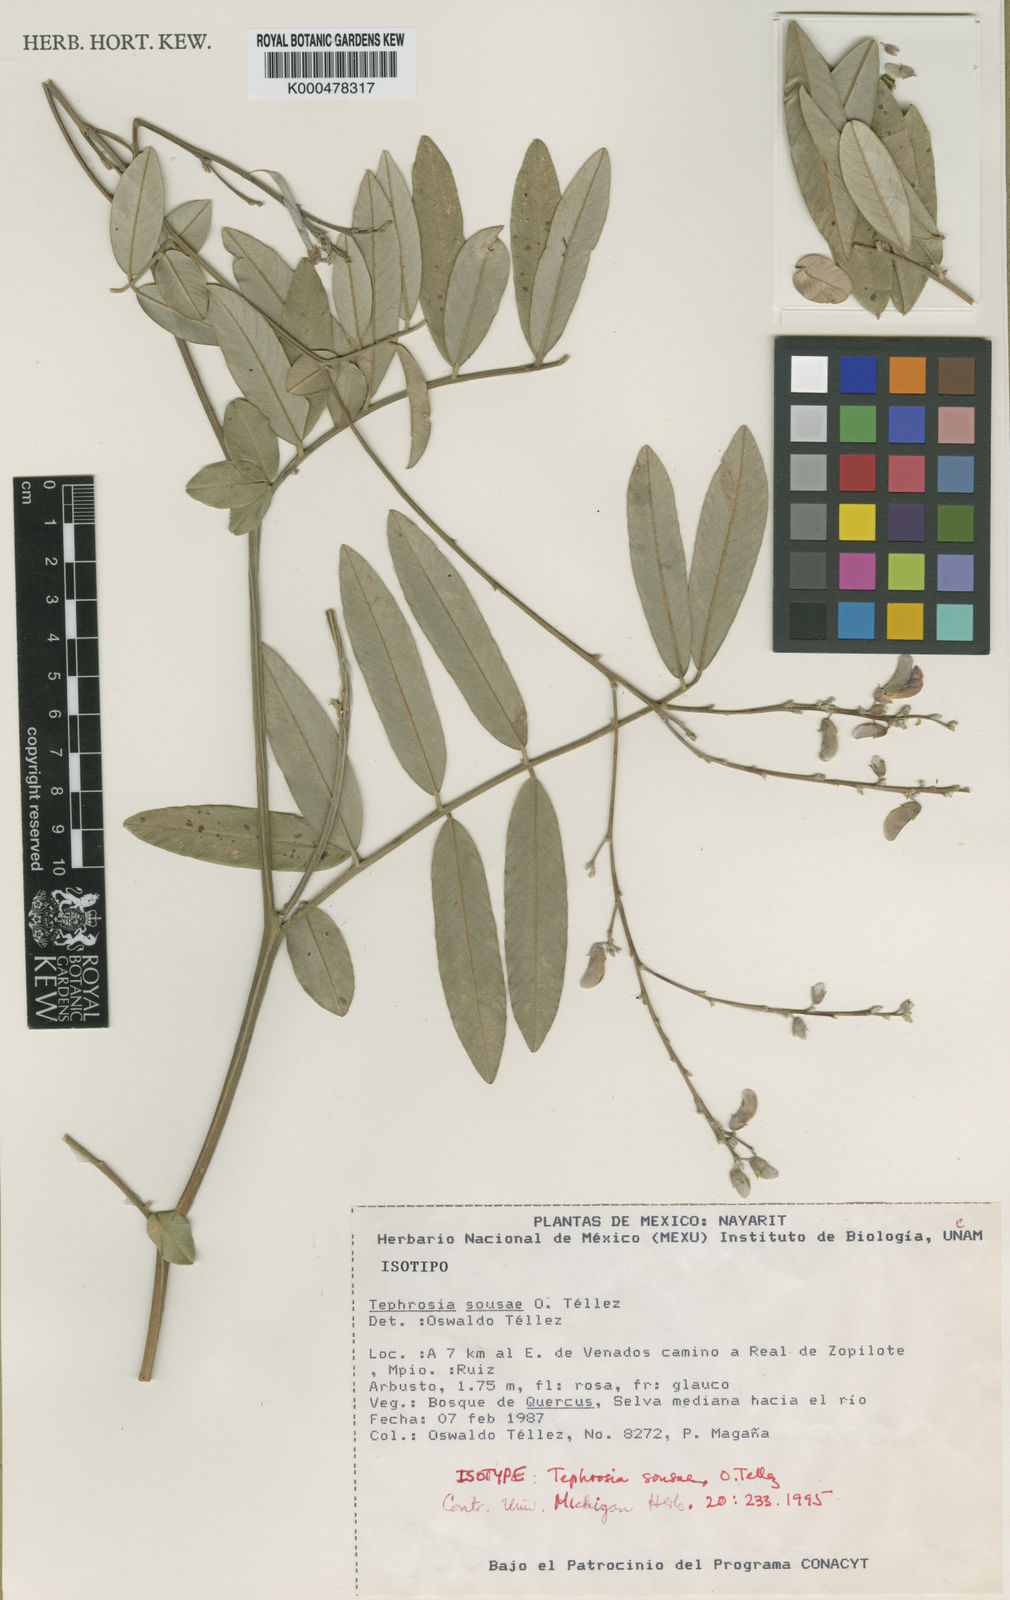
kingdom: Plantae
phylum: Tracheophyta
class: Magnoliopsida
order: Fabales
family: Fabaceae
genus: Tephrosia
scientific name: Tephrosia
